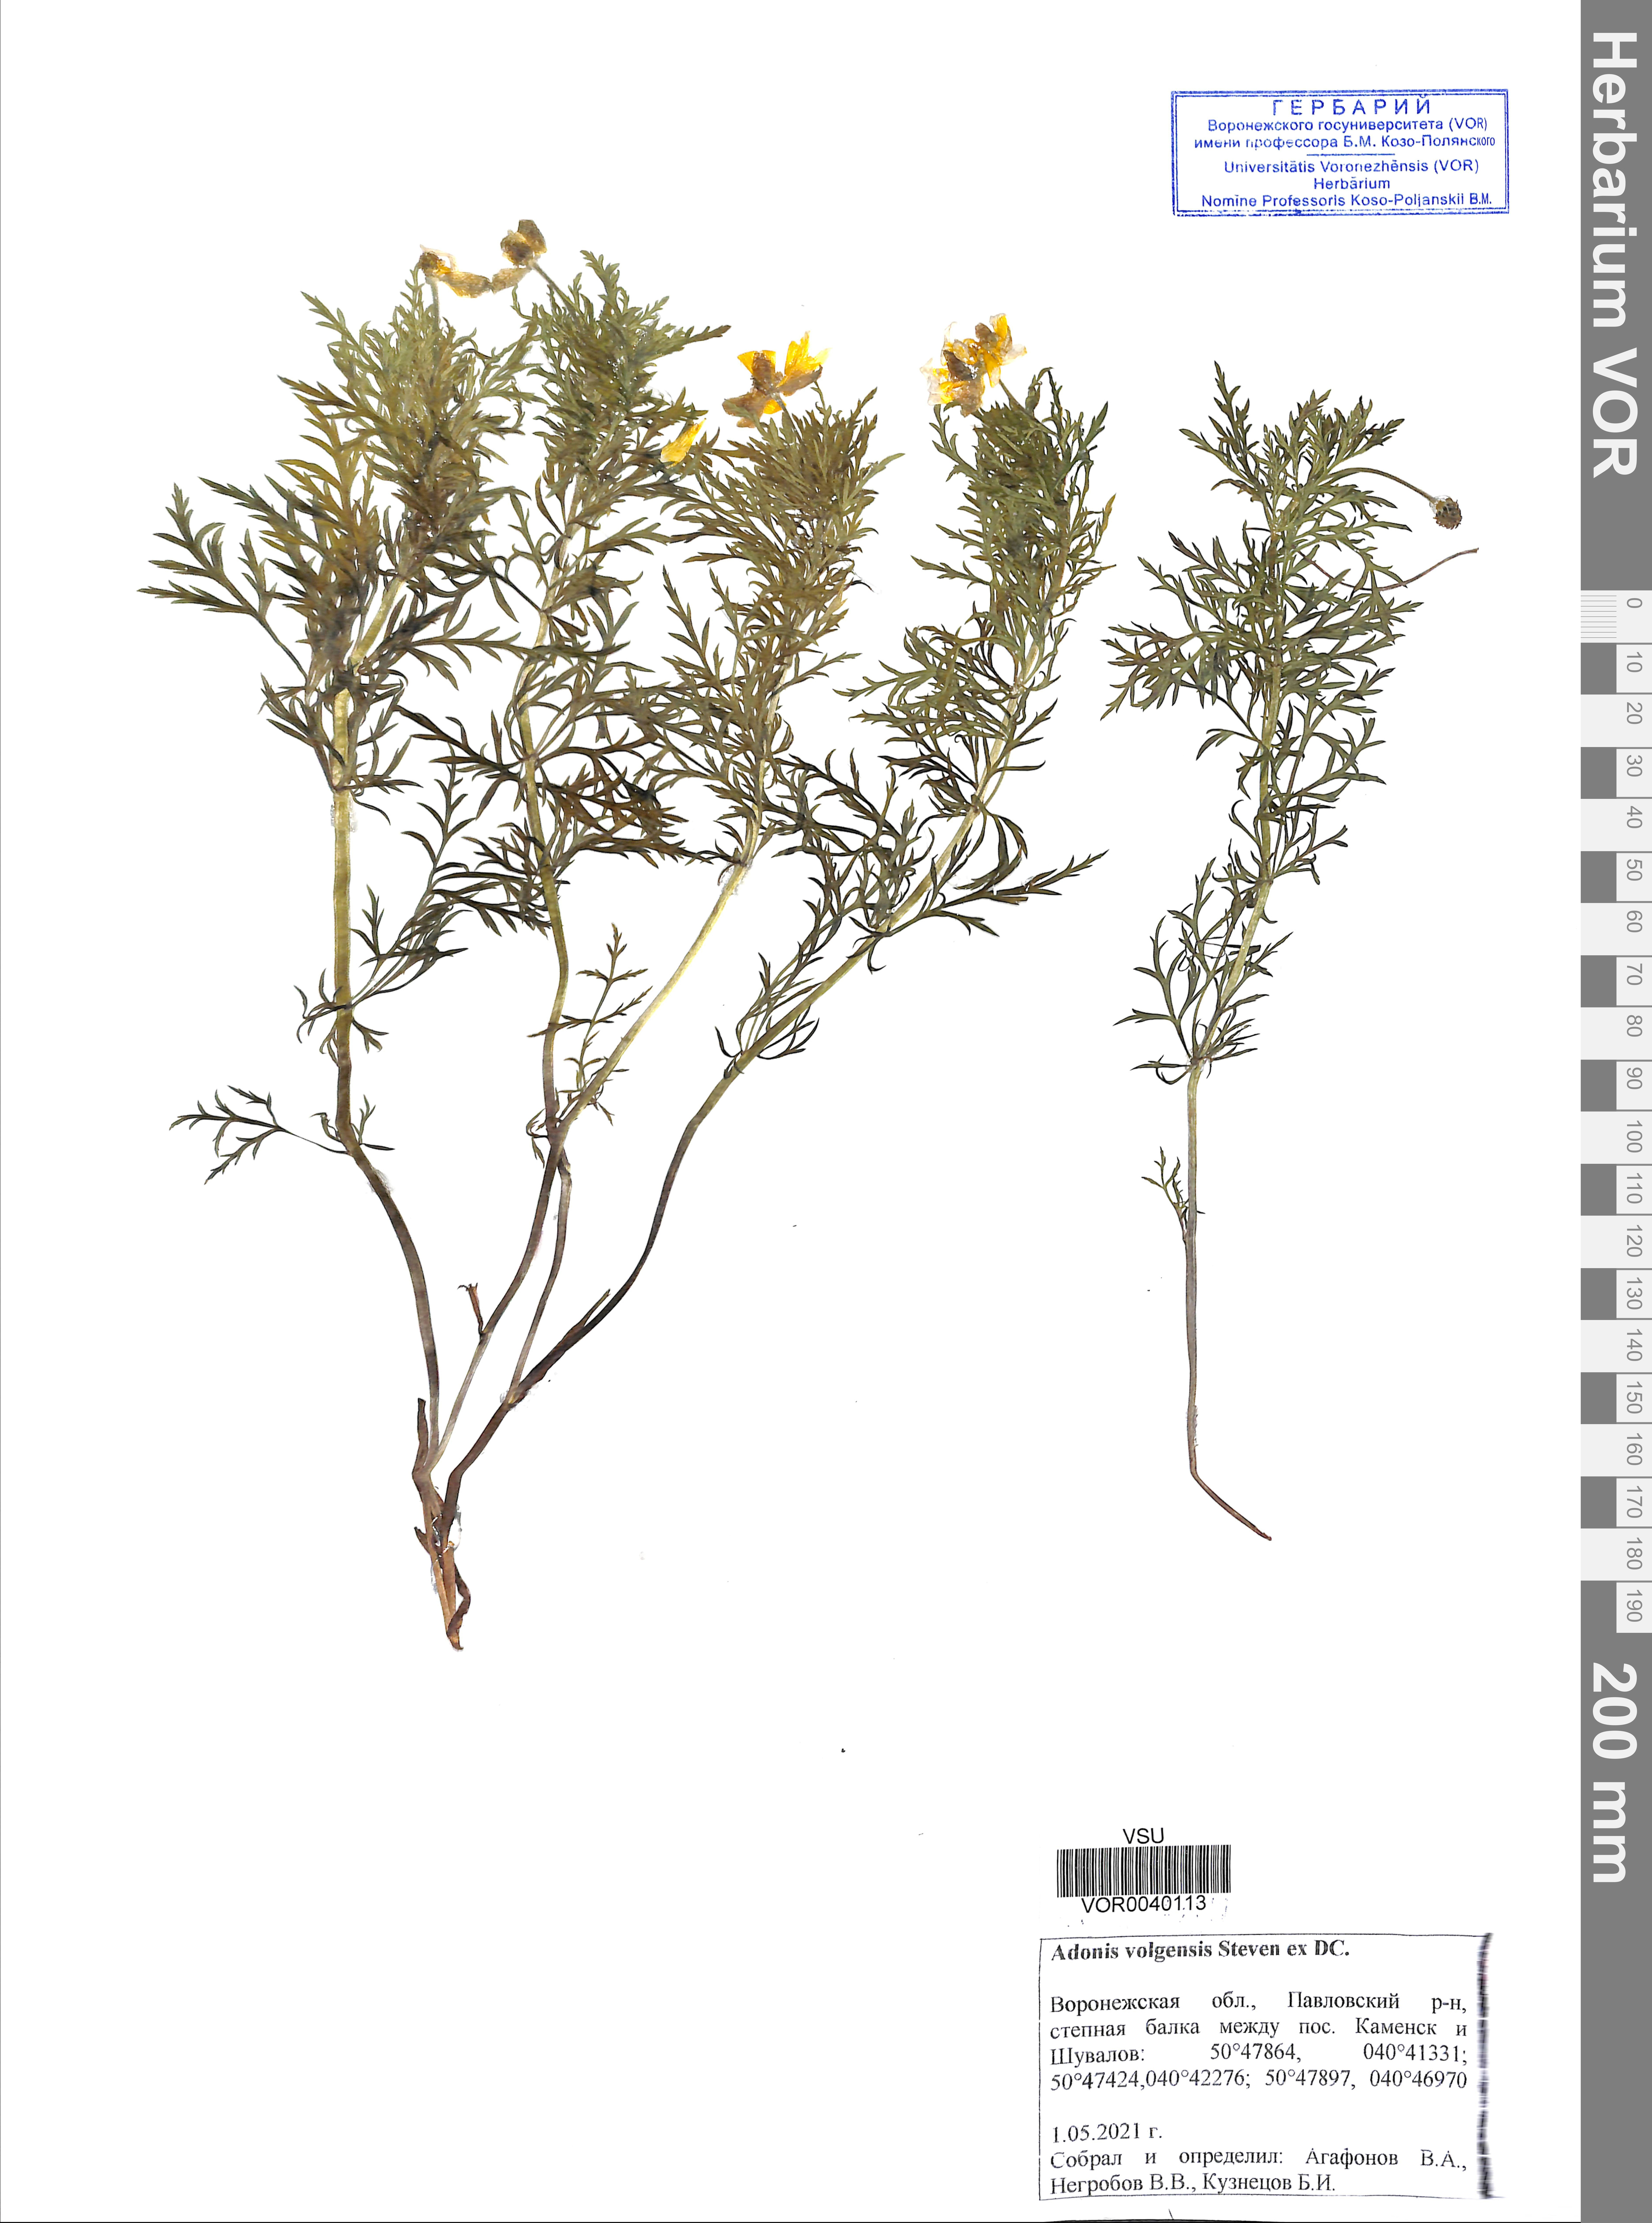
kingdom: Plantae
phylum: Tracheophyta
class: Magnoliopsida
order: Ranunculales
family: Ranunculaceae
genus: Adonis
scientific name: Adonis volgensis
